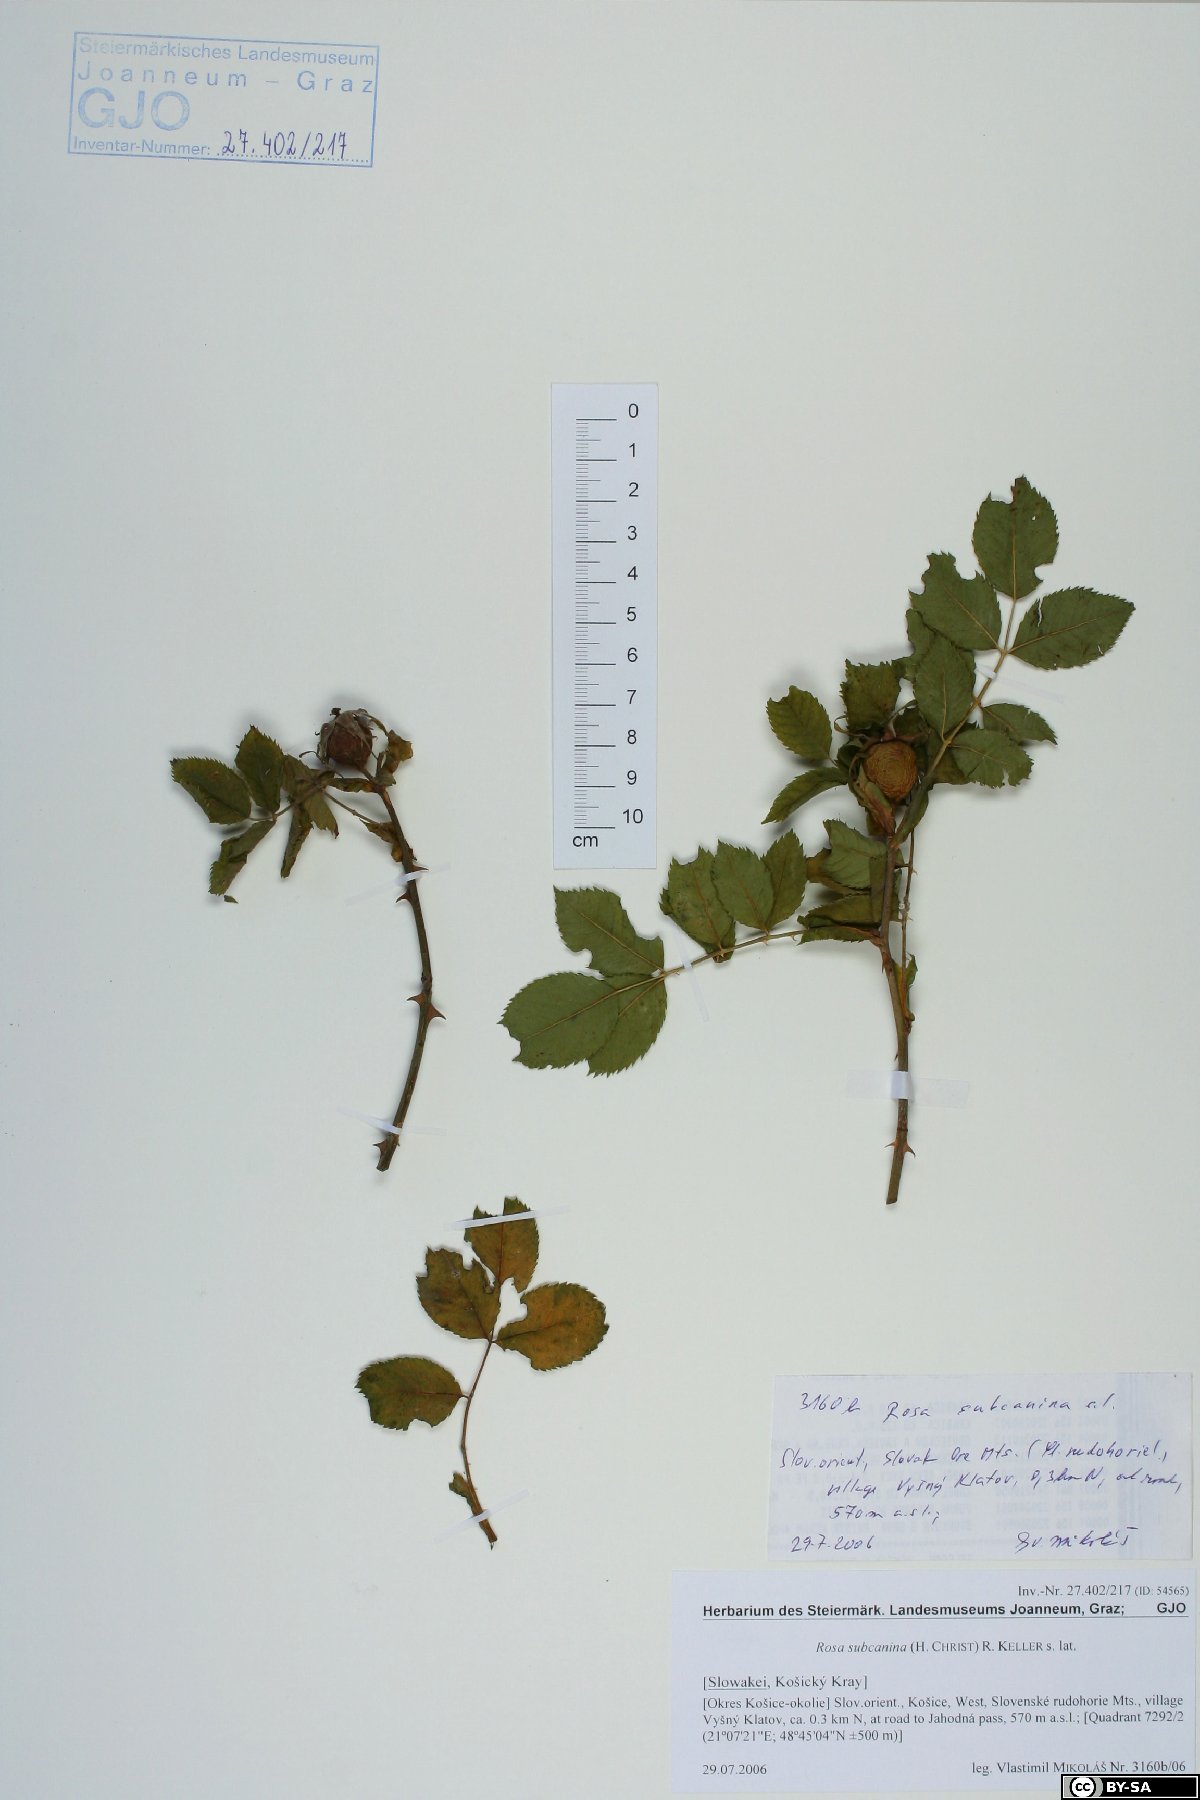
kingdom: Plantae
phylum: Tracheophyta
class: Magnoliopsida
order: Rosales
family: Rosaceae
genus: Rosa
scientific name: Rosa subcanina
